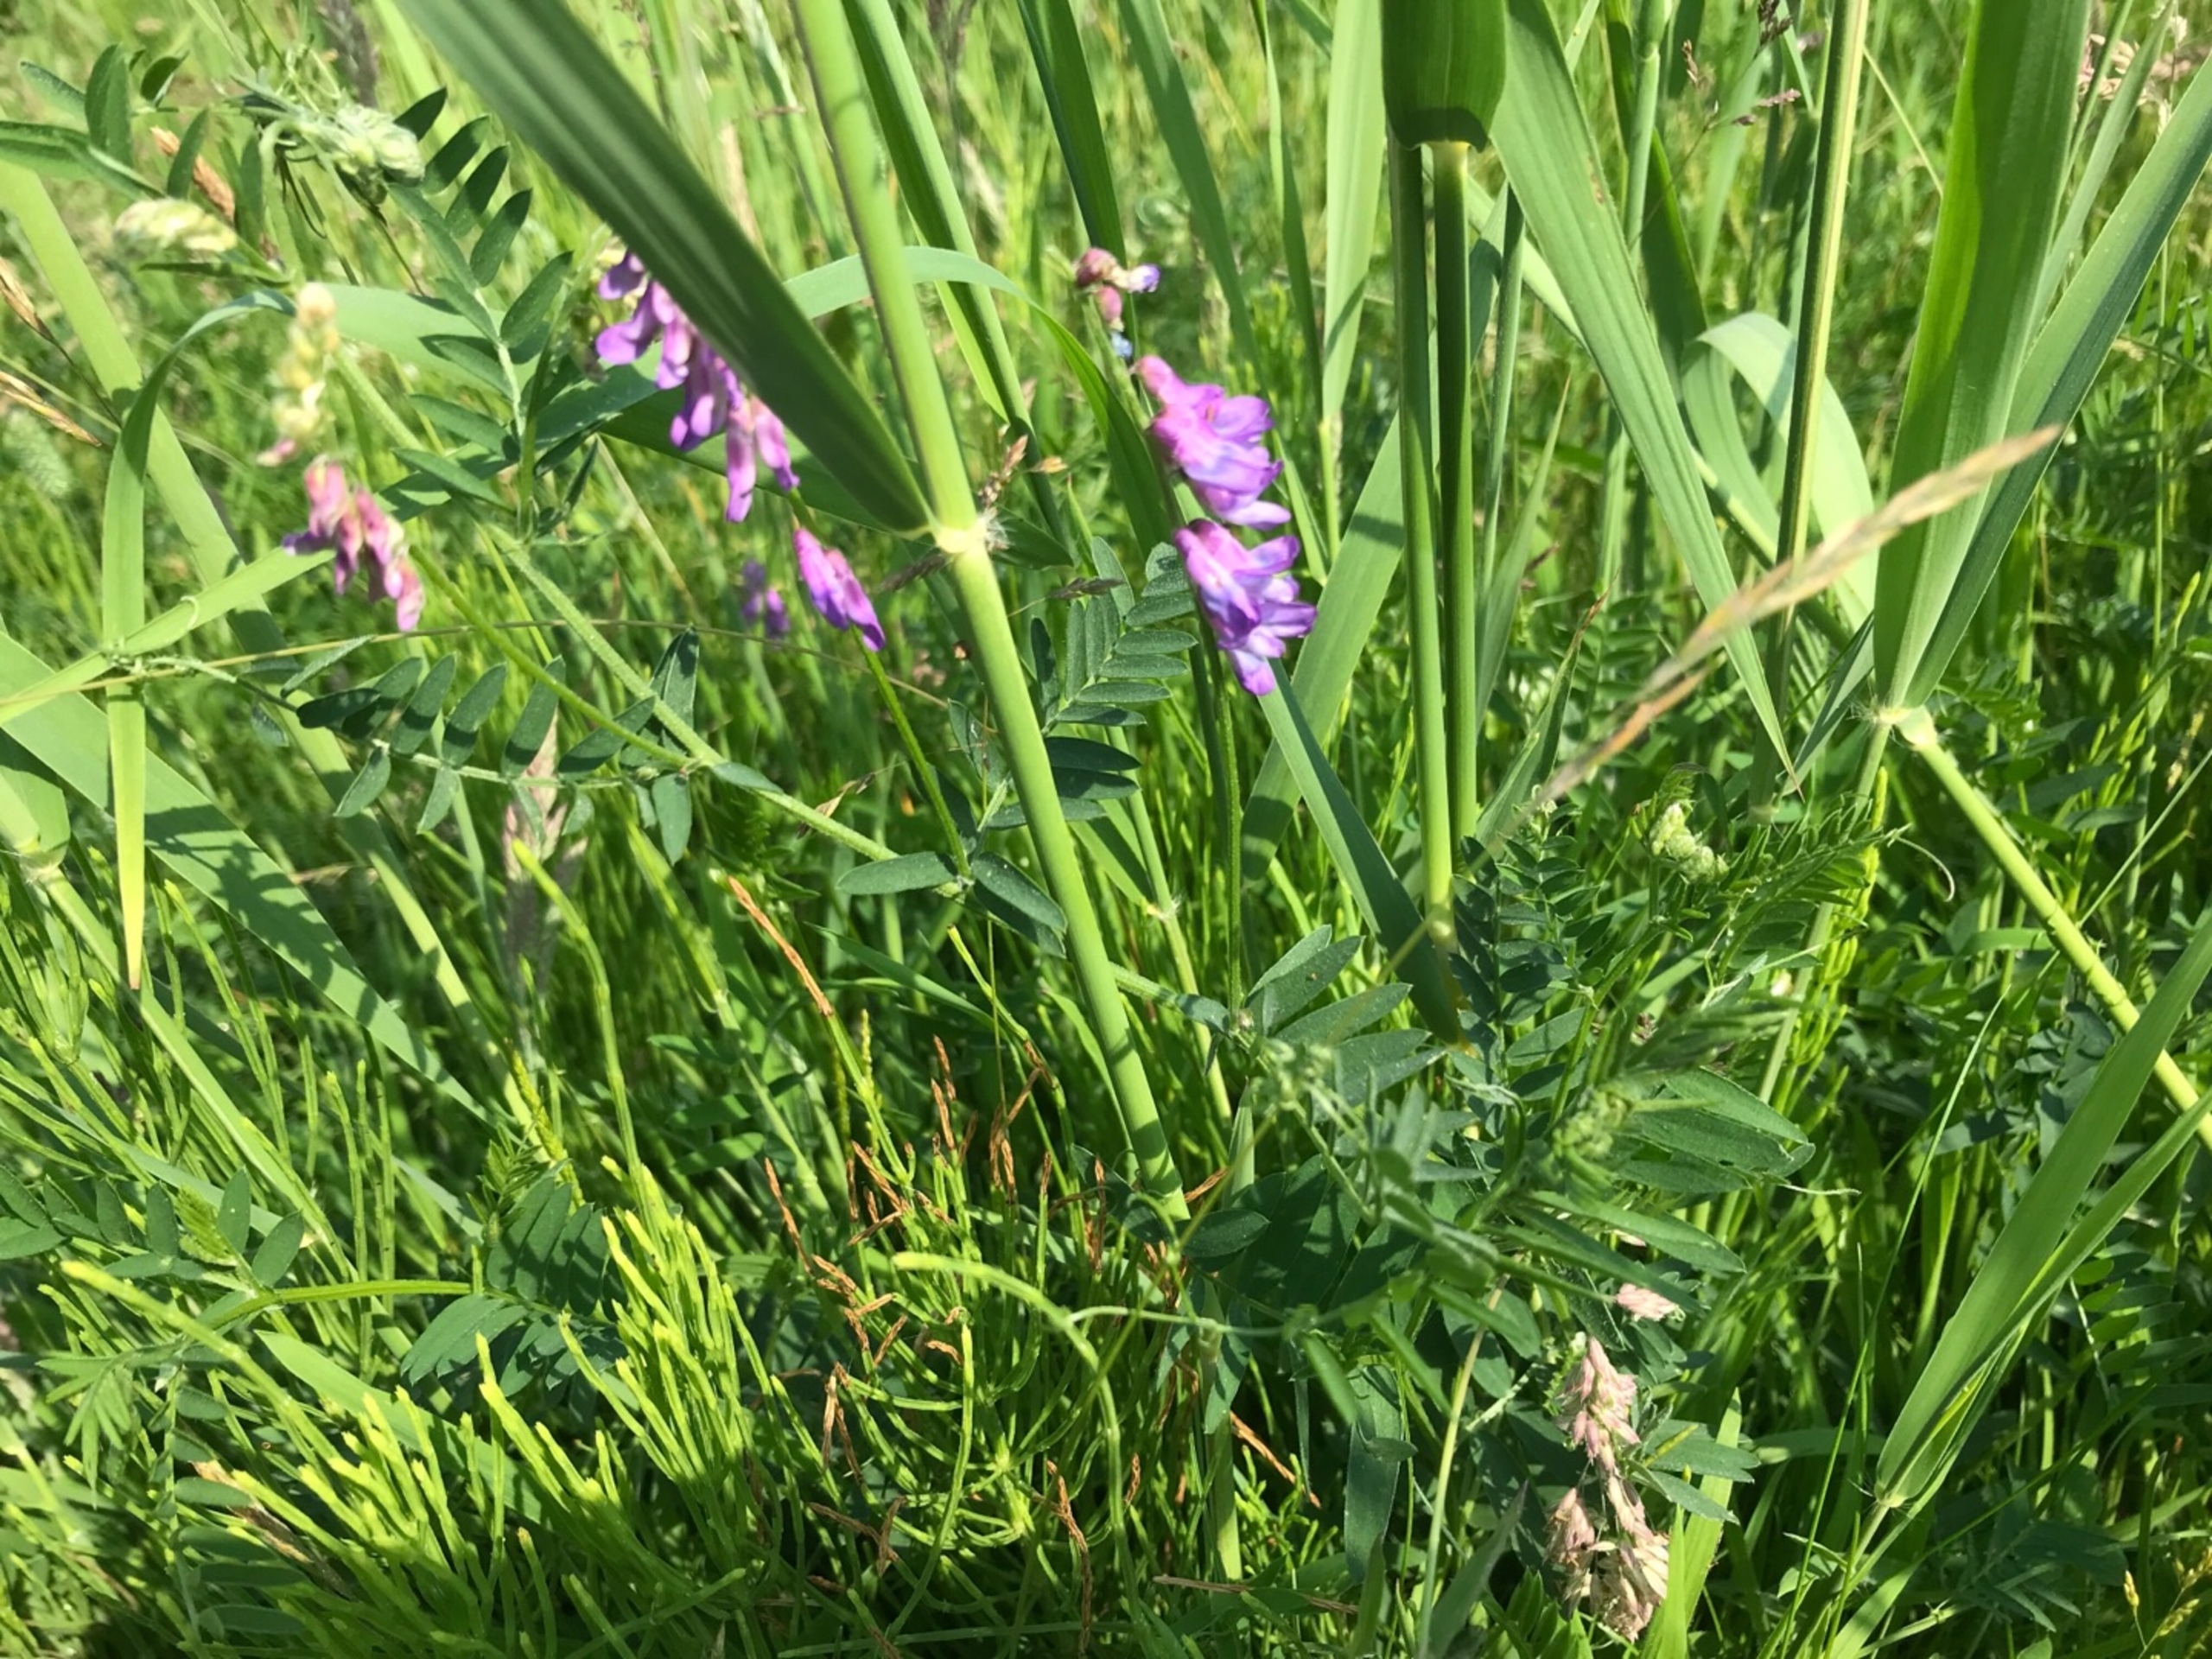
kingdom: Plantae
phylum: Tracheophyta
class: Magnoliopsida
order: Fabales
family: Fabaceae
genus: Vicia
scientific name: Vicia cracca
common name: Muse-vikke
